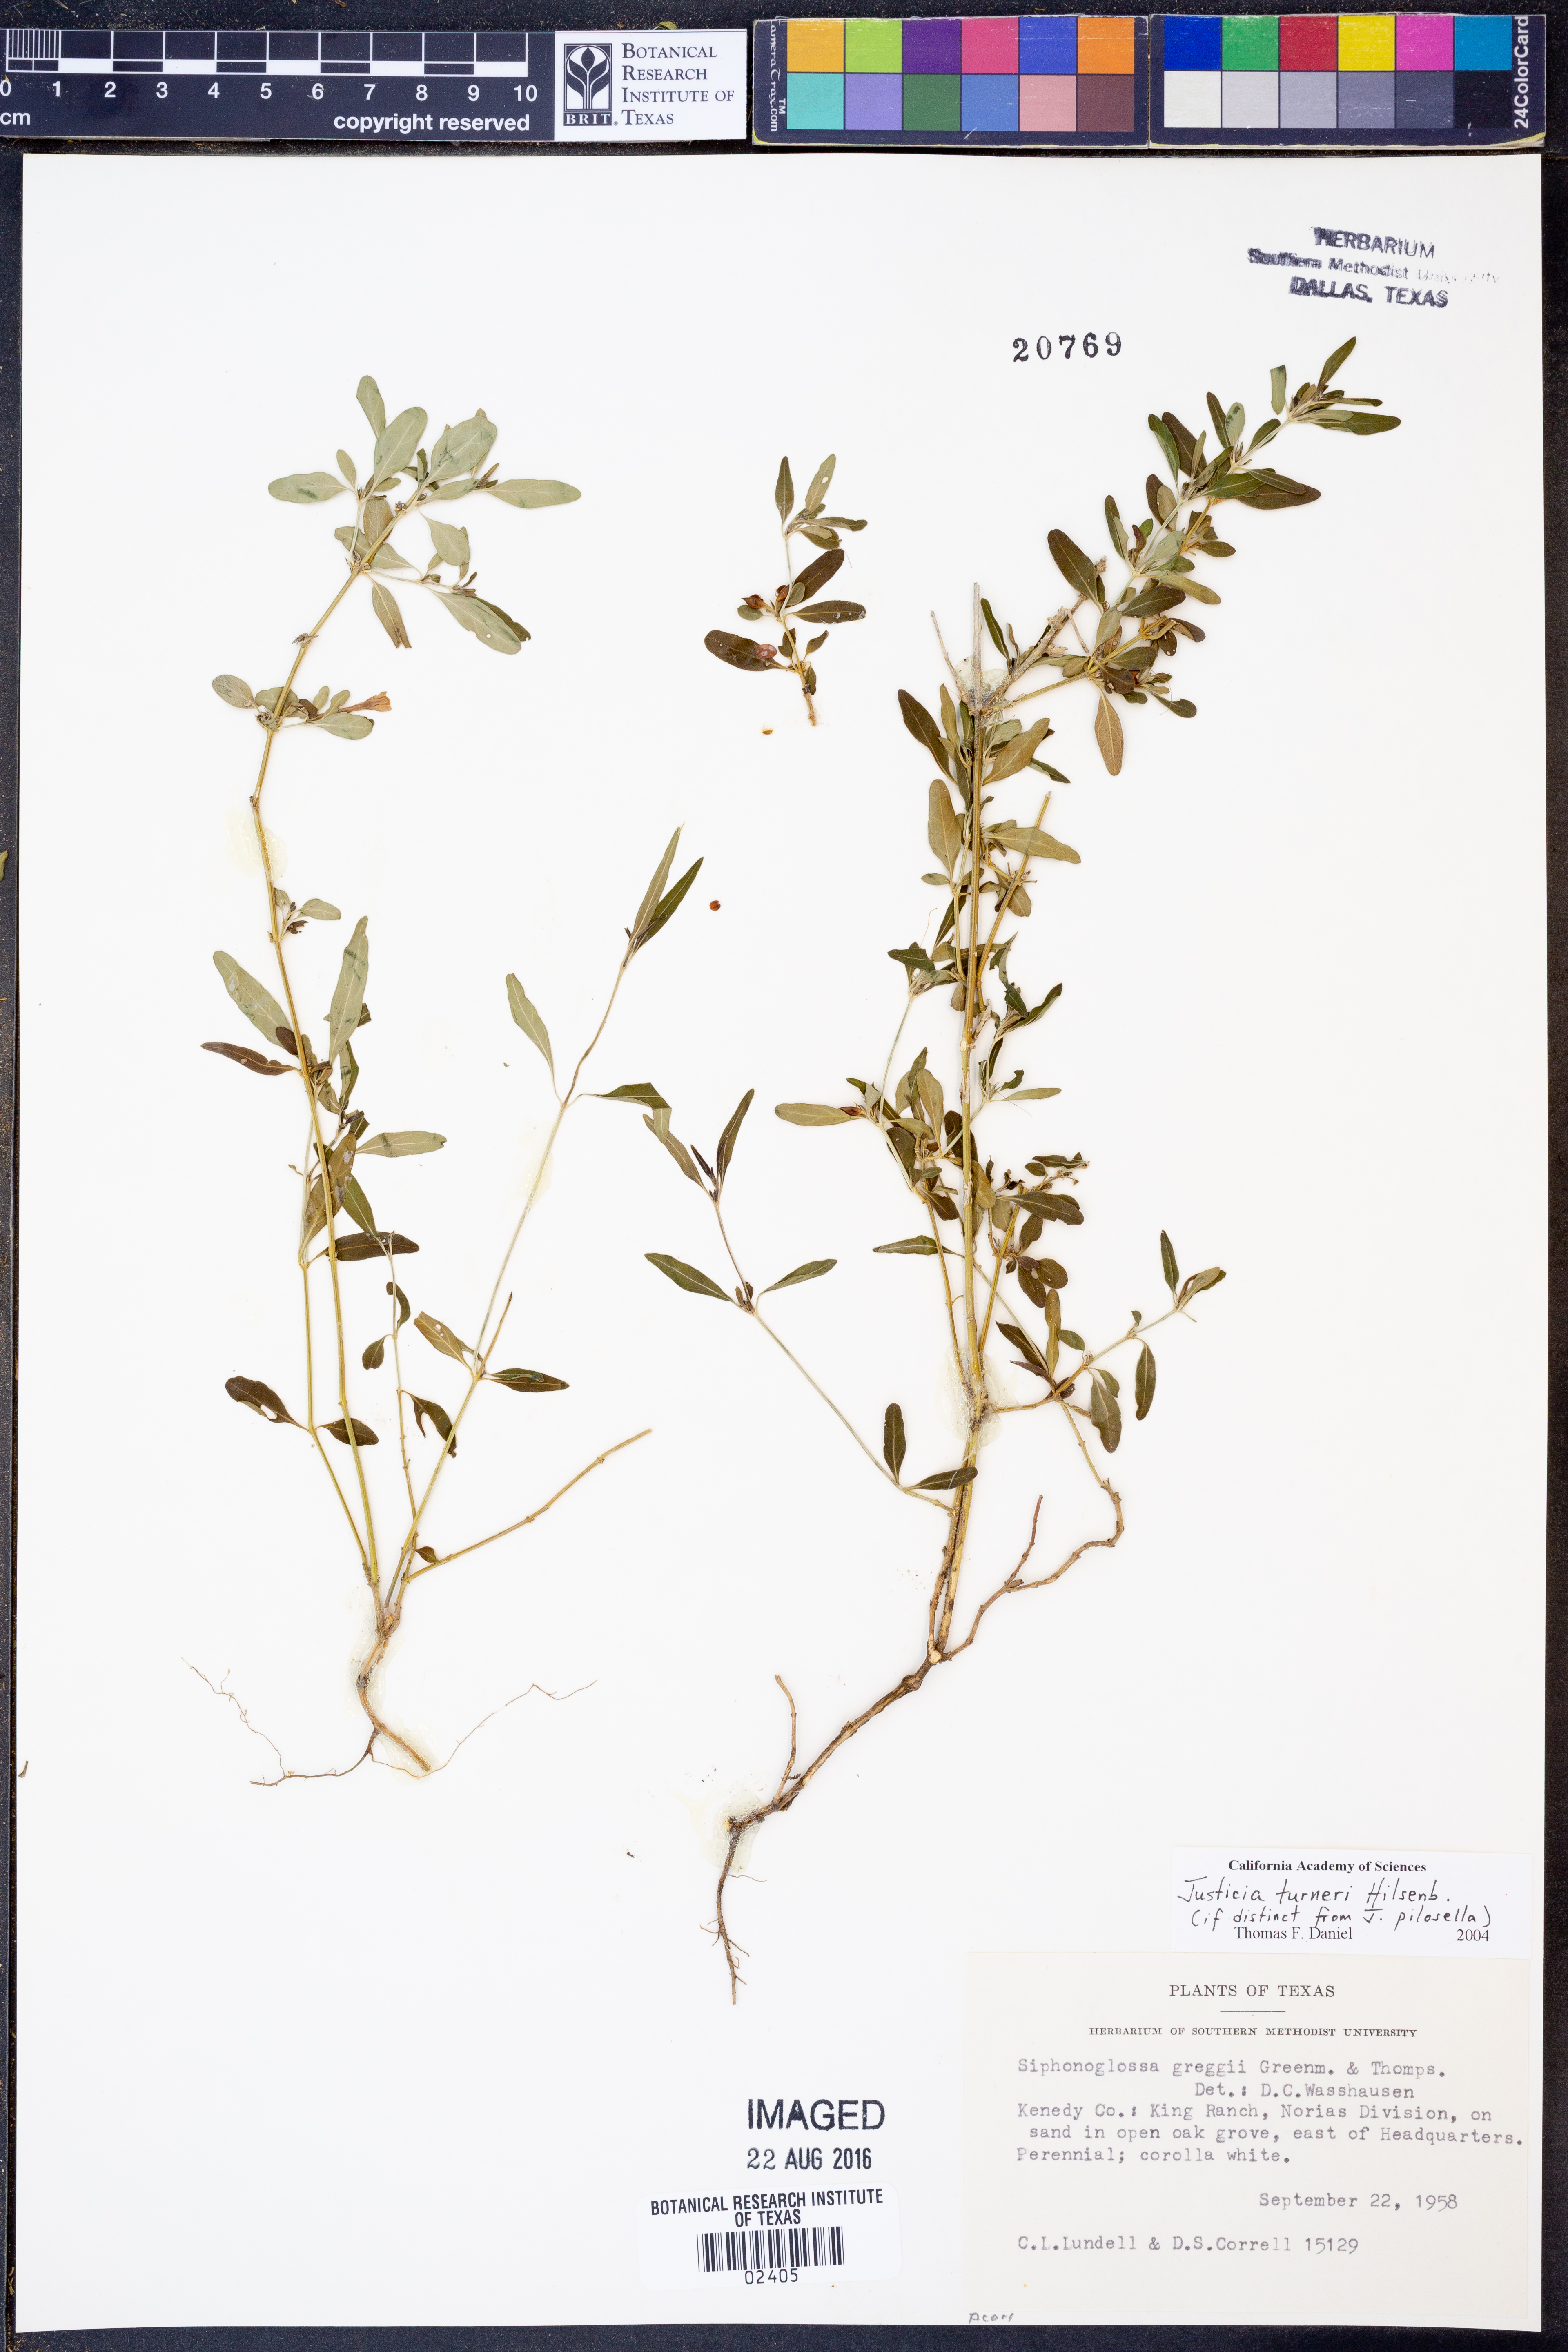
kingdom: Plantae
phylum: Tracheophyta
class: Magnoliopsida
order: Lamiales
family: Acanthaceae
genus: Justicia
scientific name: Justicia turneri
